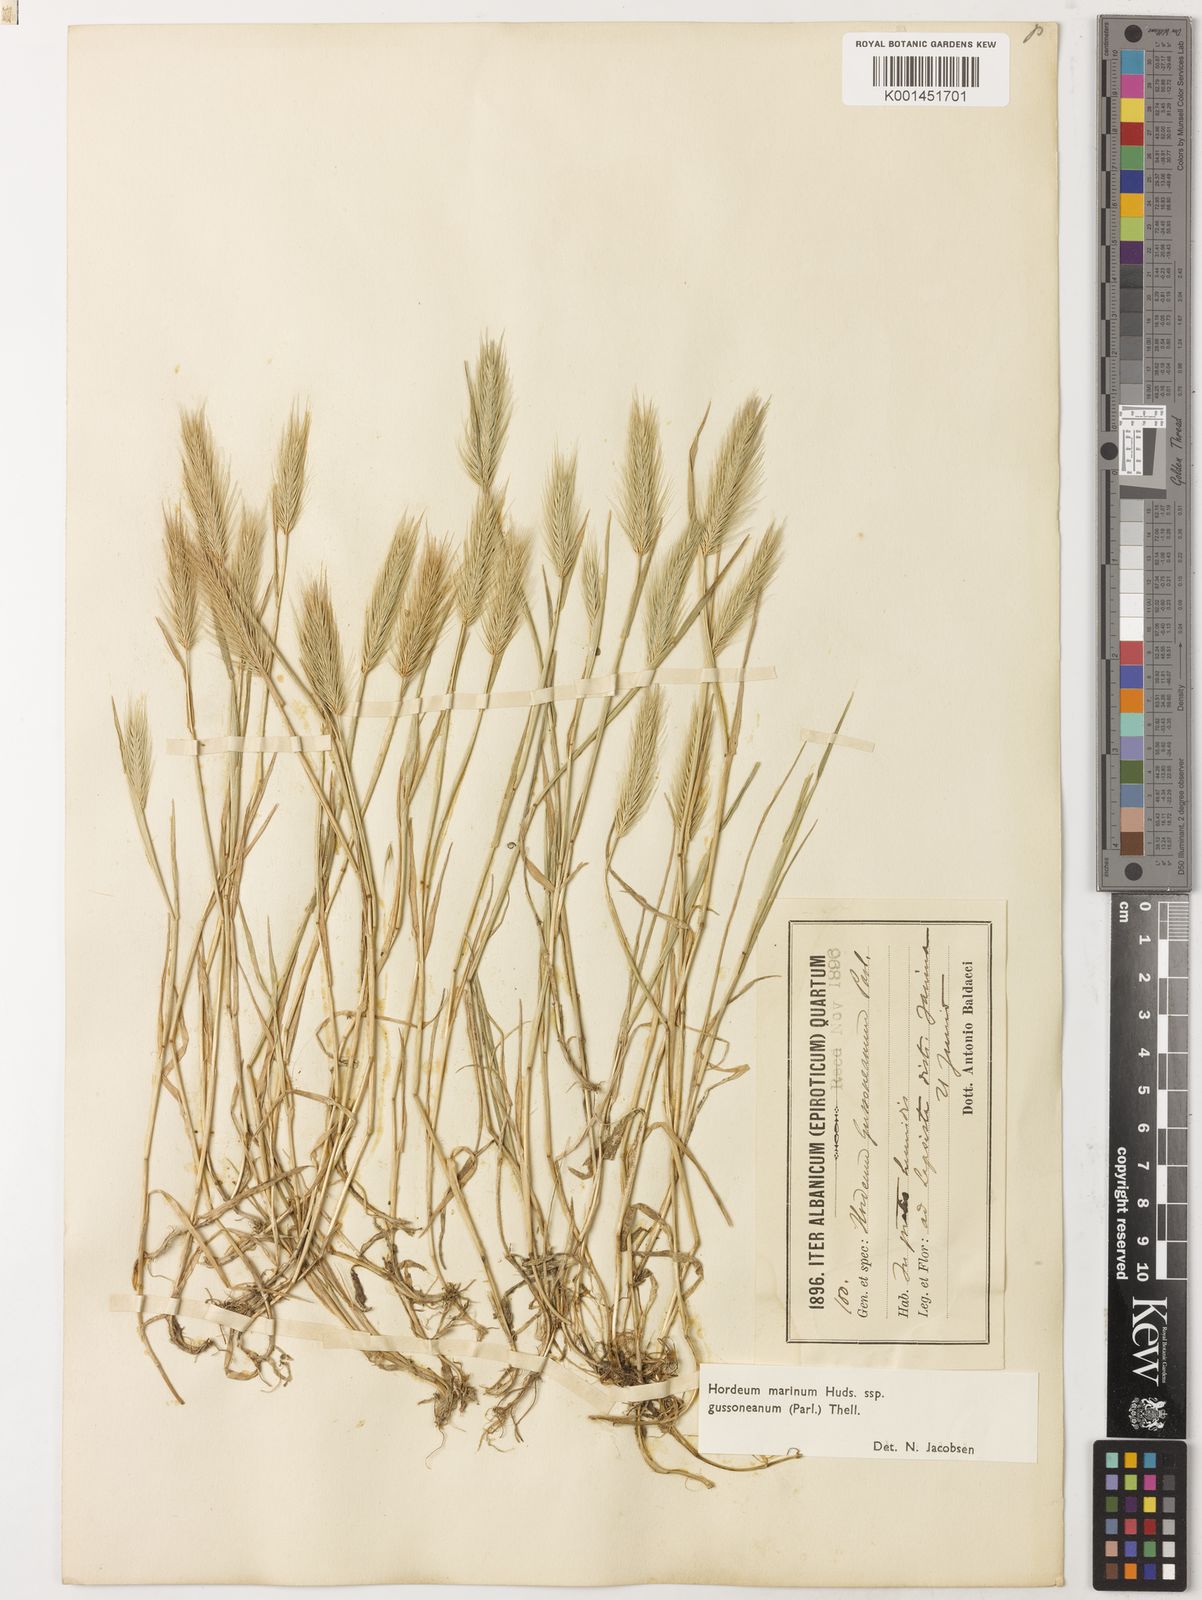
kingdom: Plantae
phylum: Tracheophyta
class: Liliopsida
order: Poales
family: Poaceae
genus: Hordeum
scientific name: Hordeum marinum
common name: Sea barley
